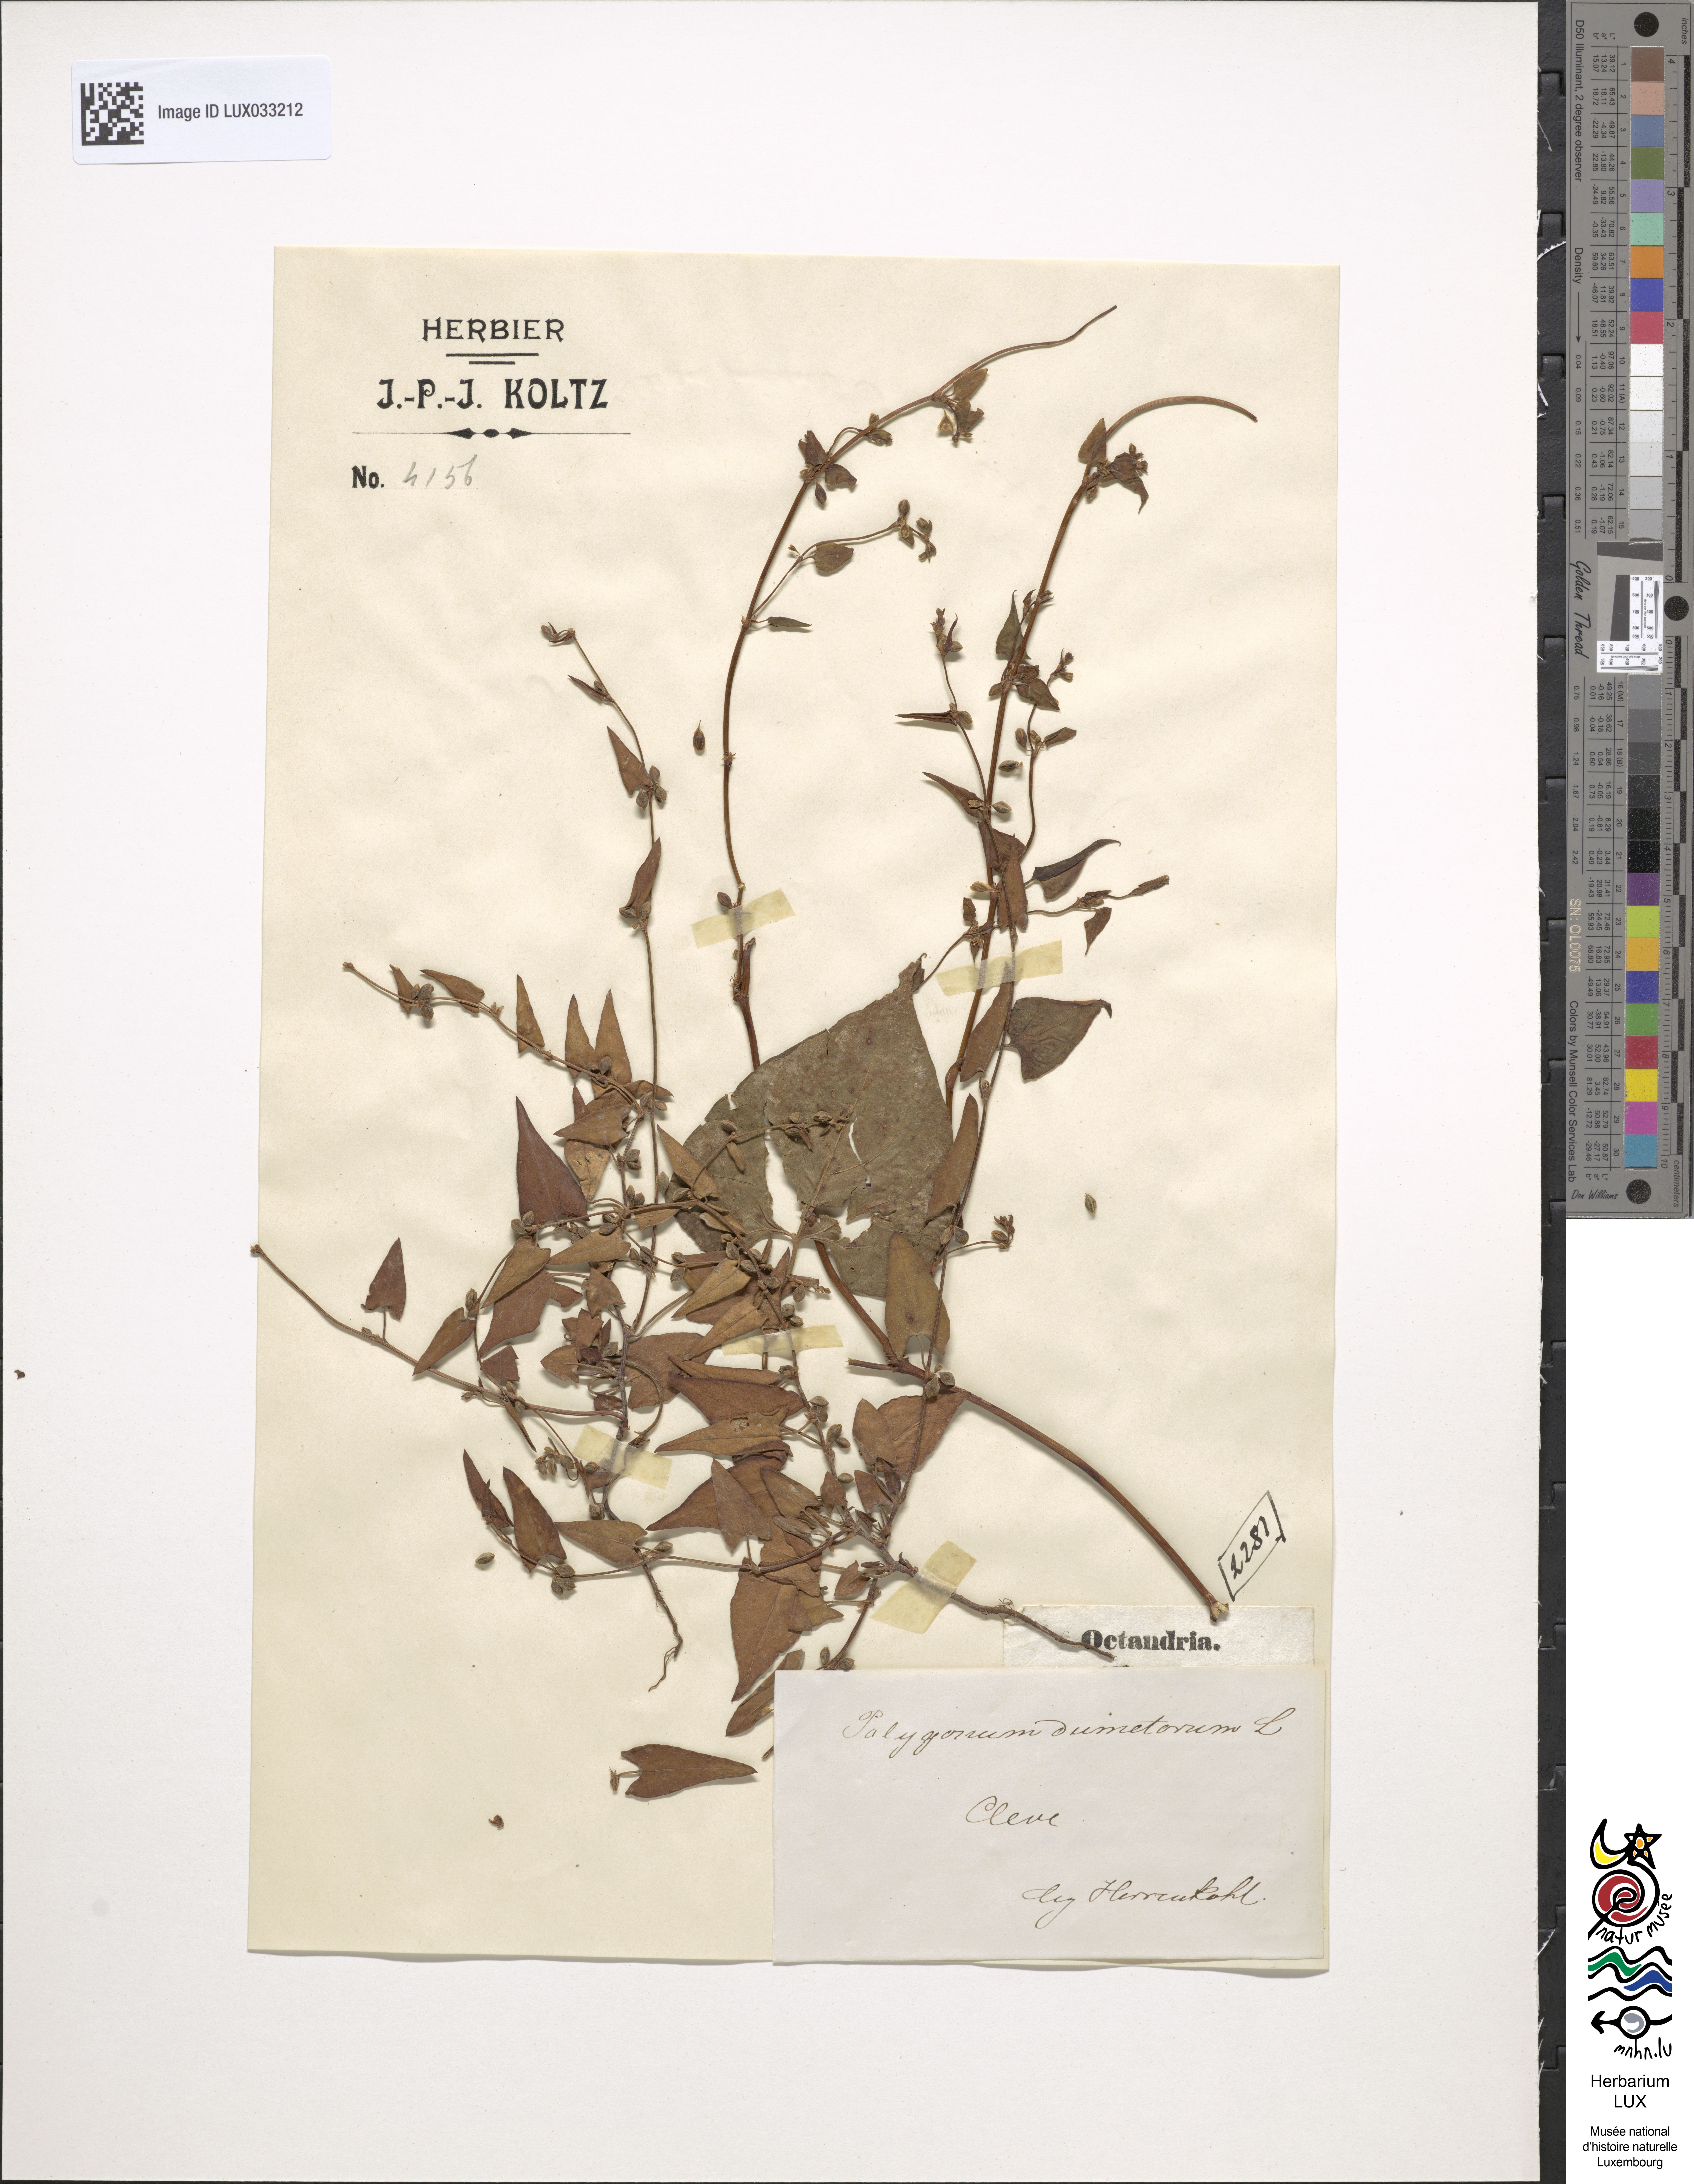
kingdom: Plantae
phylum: Tracheophyta
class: Magnoliopsida
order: Caryophyllales
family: Polygonaceae
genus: Fallopia
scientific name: Fallopia dumetorum
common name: Copse-bindweed
